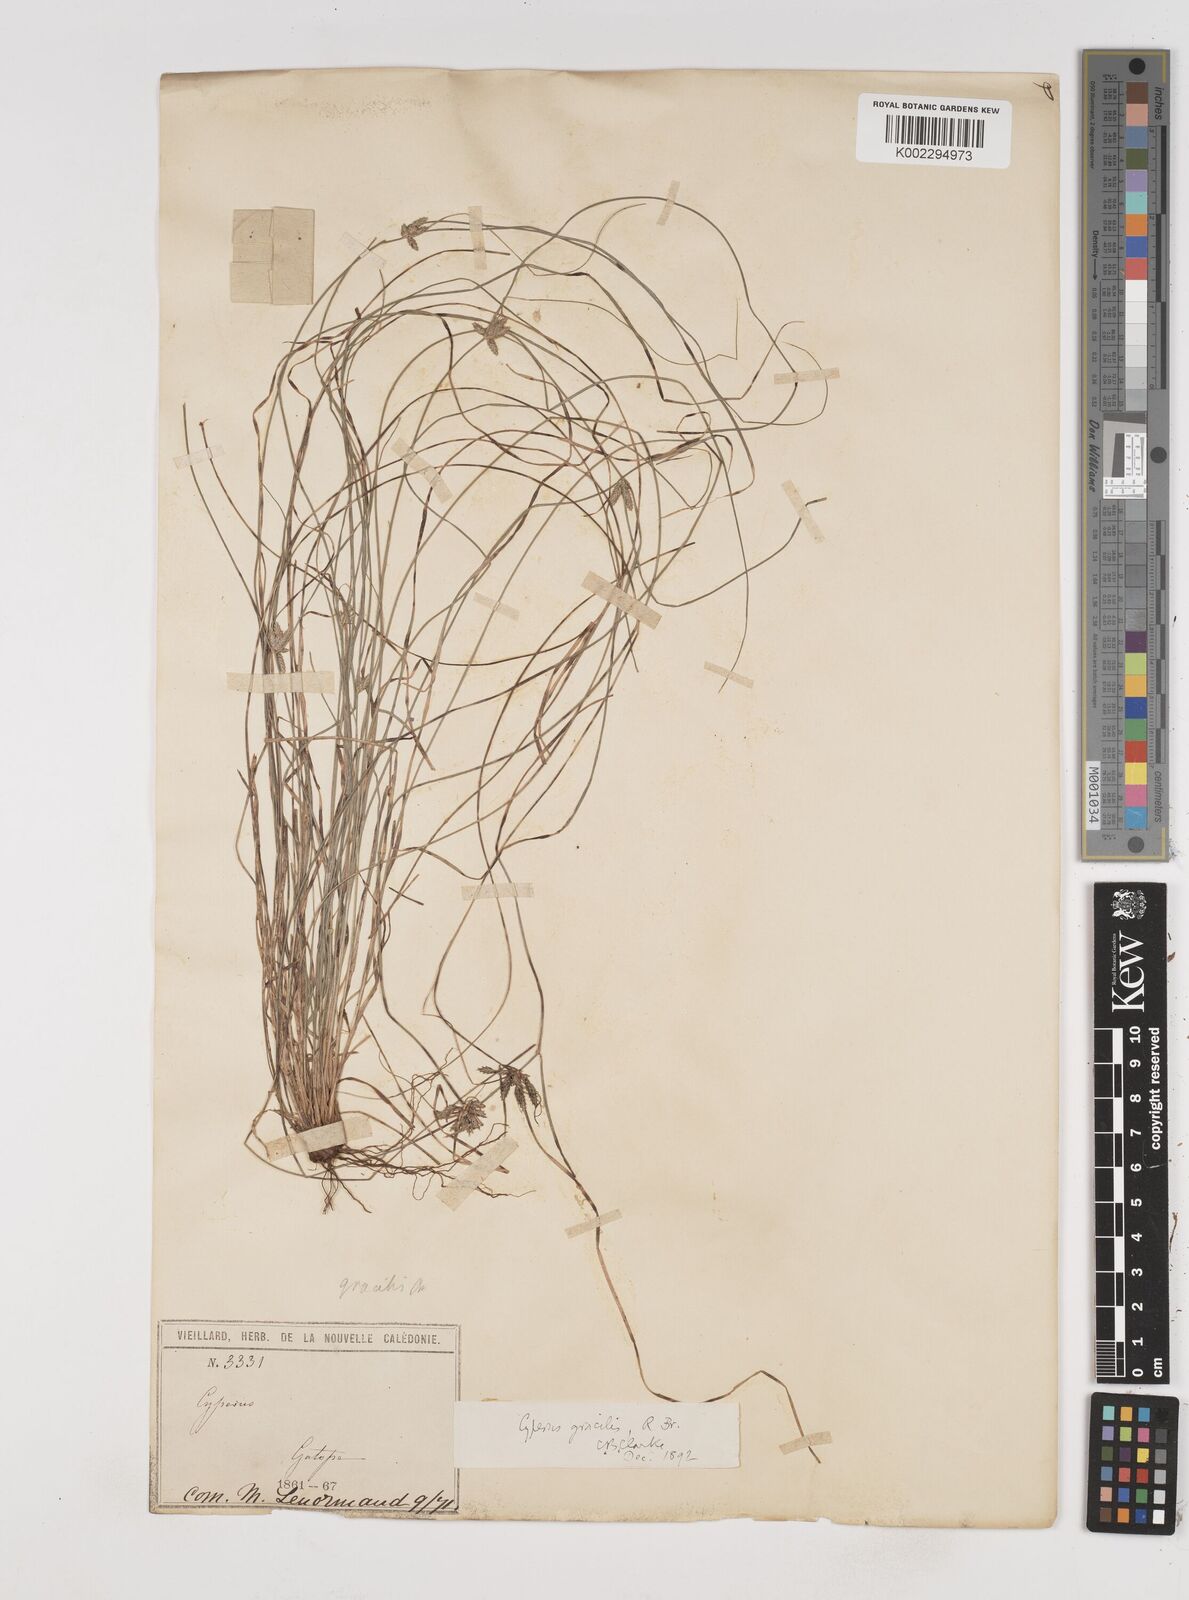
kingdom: Plantae
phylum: Tracheophyta
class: Liliopsida
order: Poales
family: Cyperaceae
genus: Cyperus
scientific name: Cyperus gracilis
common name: Slimjim flatsedge
